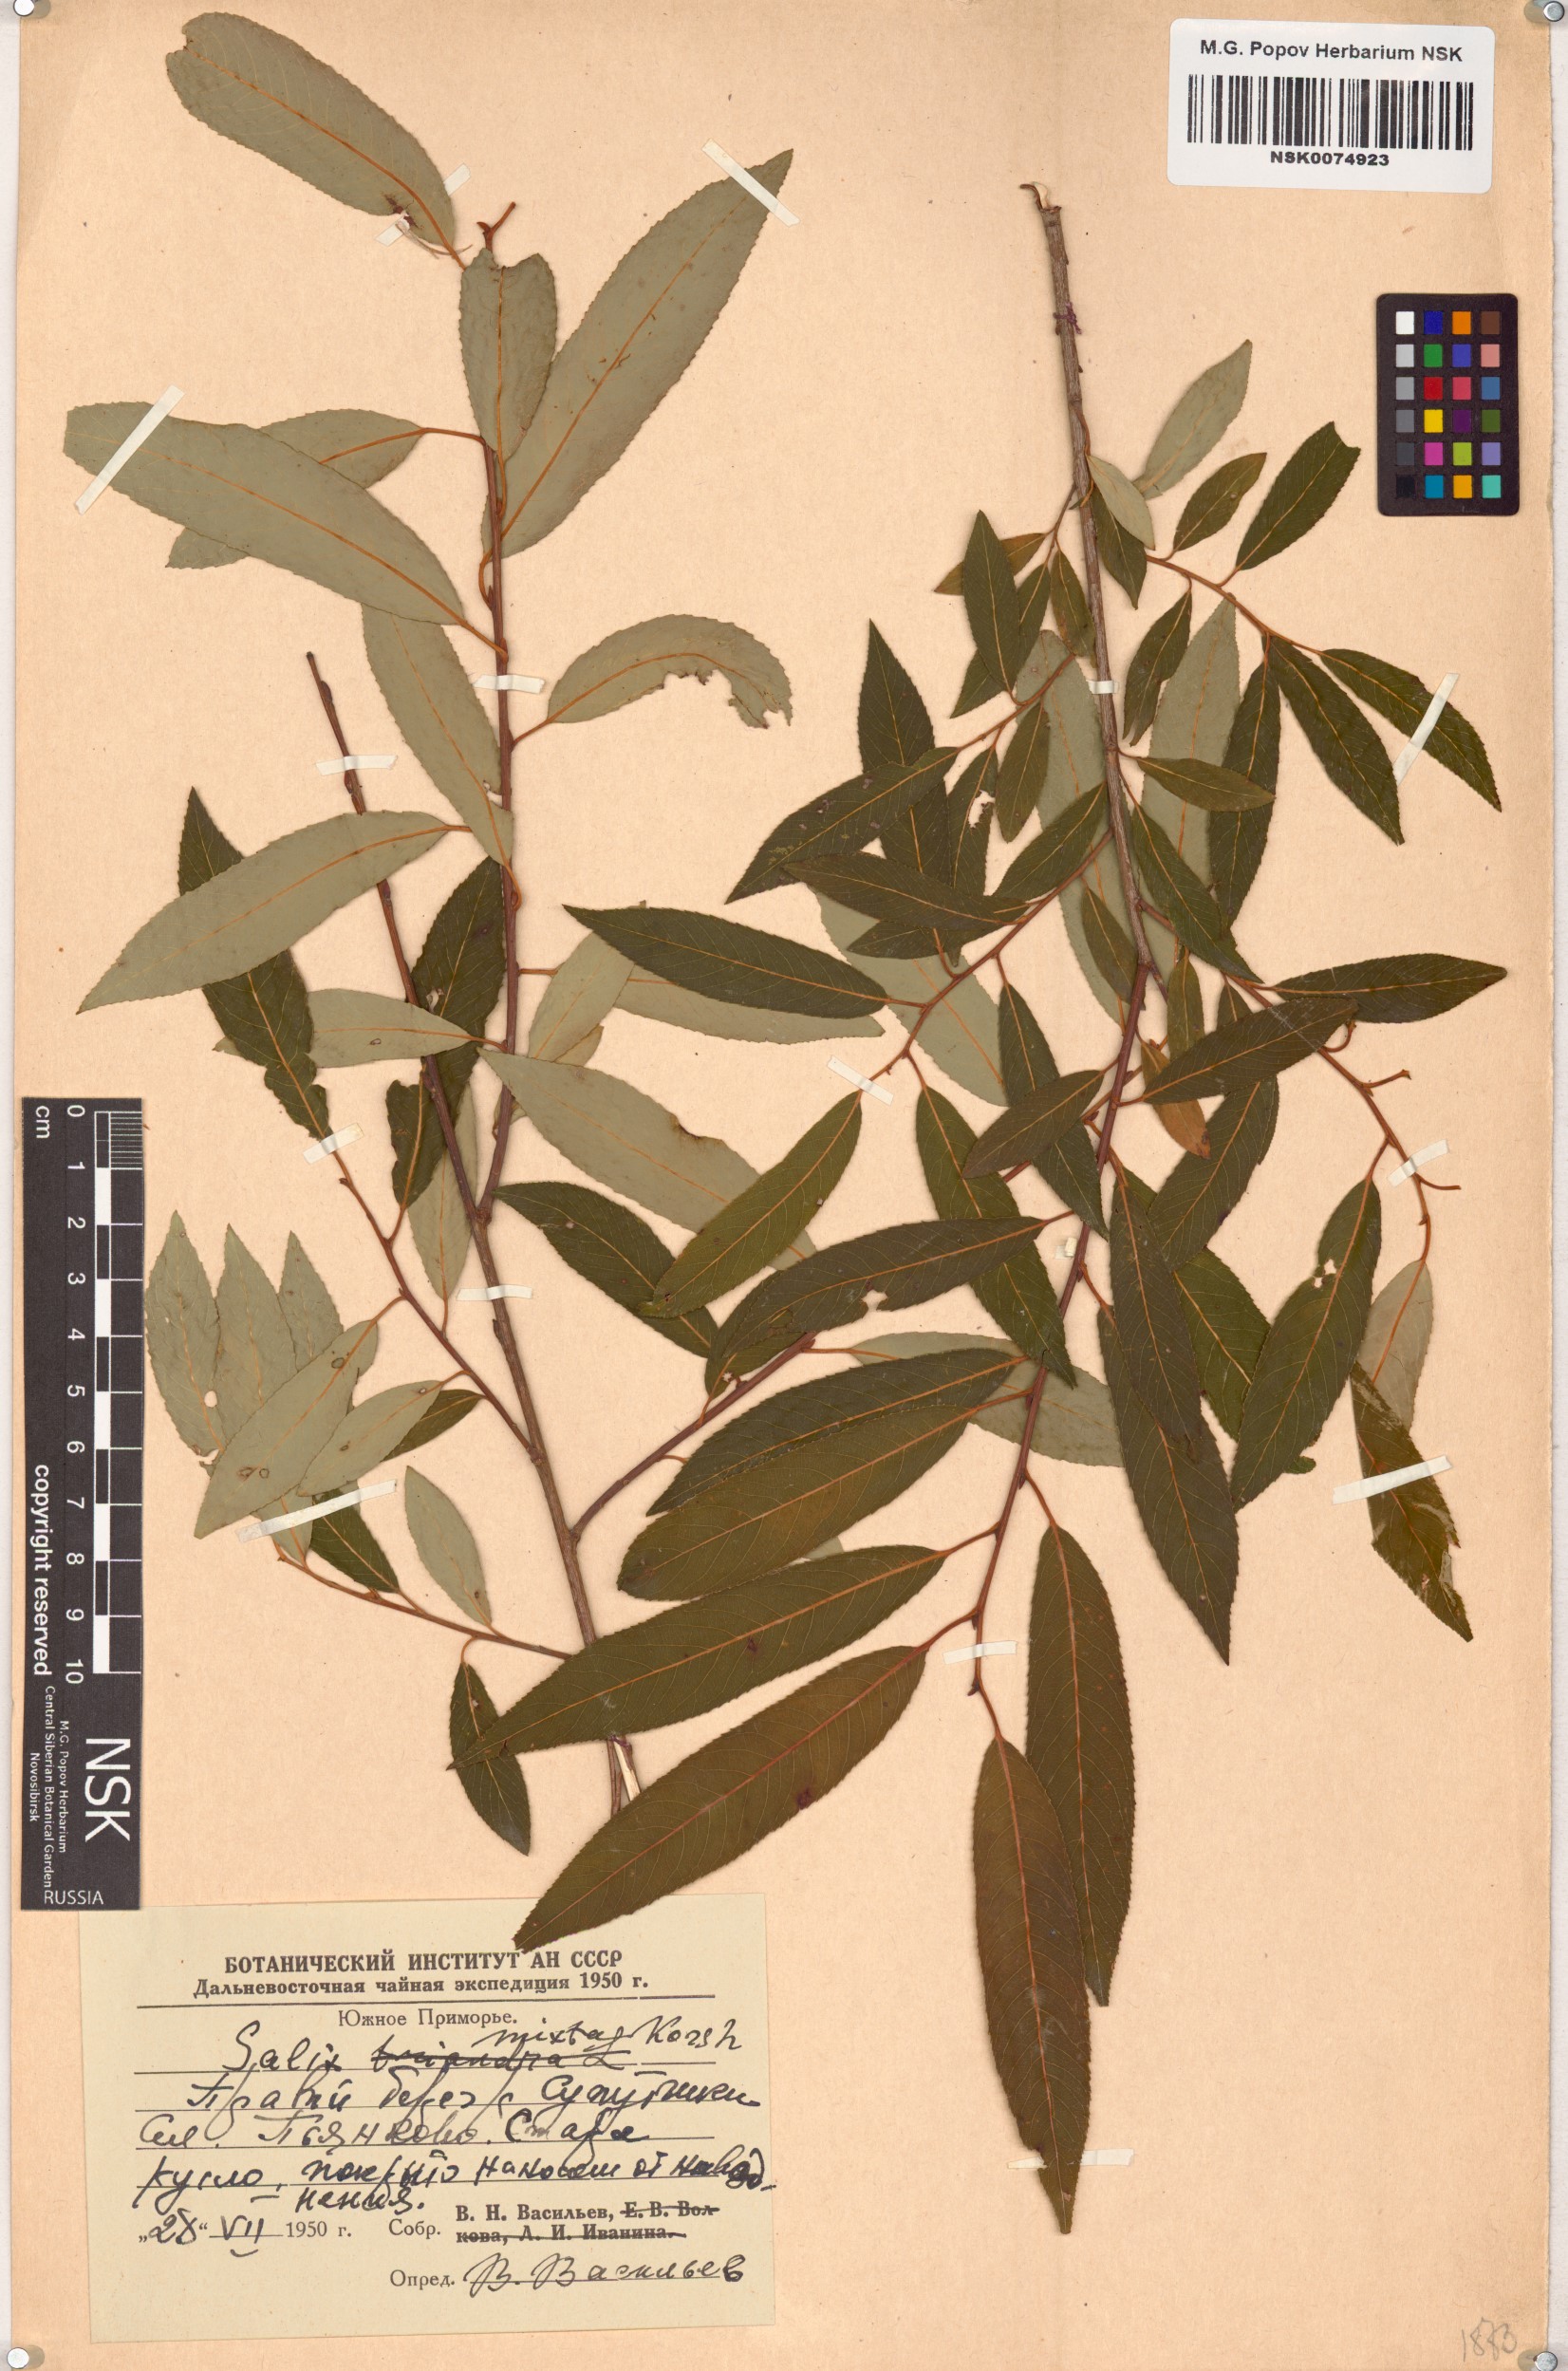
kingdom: Plantae
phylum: Tracheophyta
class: Magnoliopsida
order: Malpighiales
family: Salicaceae
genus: Salix
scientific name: Salix mixta
